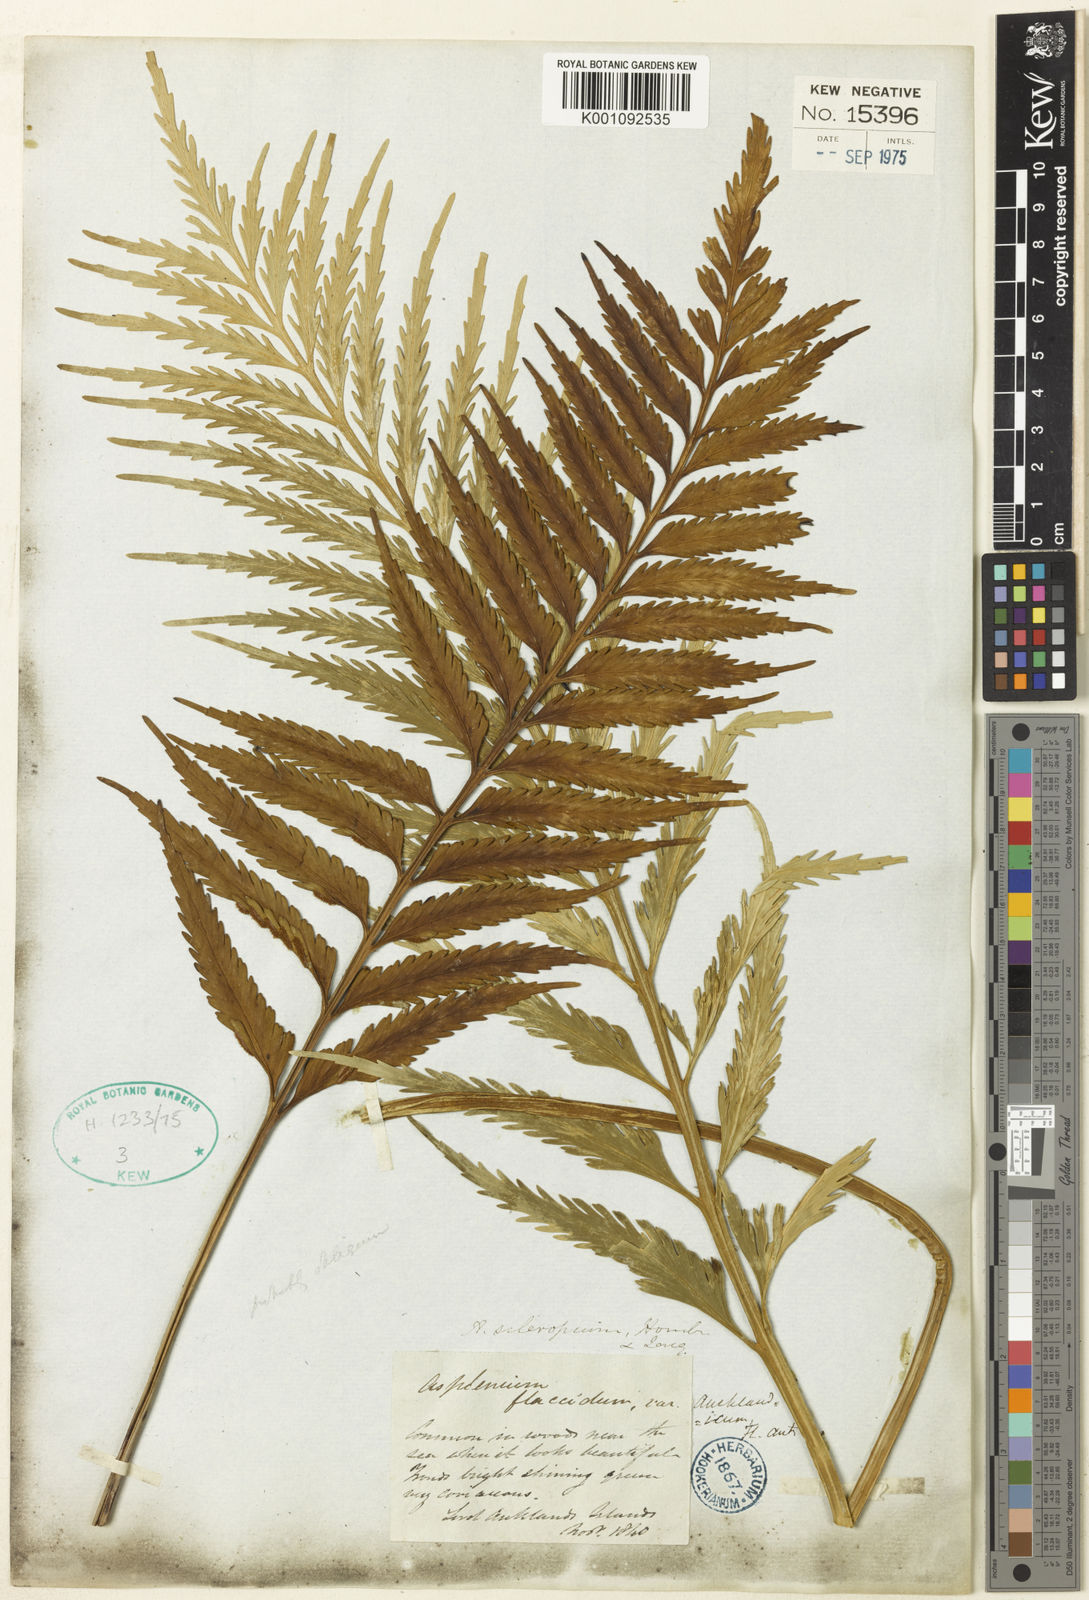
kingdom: Plantae
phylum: Tracheophyta
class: Polypodiopsida
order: Polypodiales
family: Aspleniaceae
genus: Asplenium
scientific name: Asplenium scleroprium
